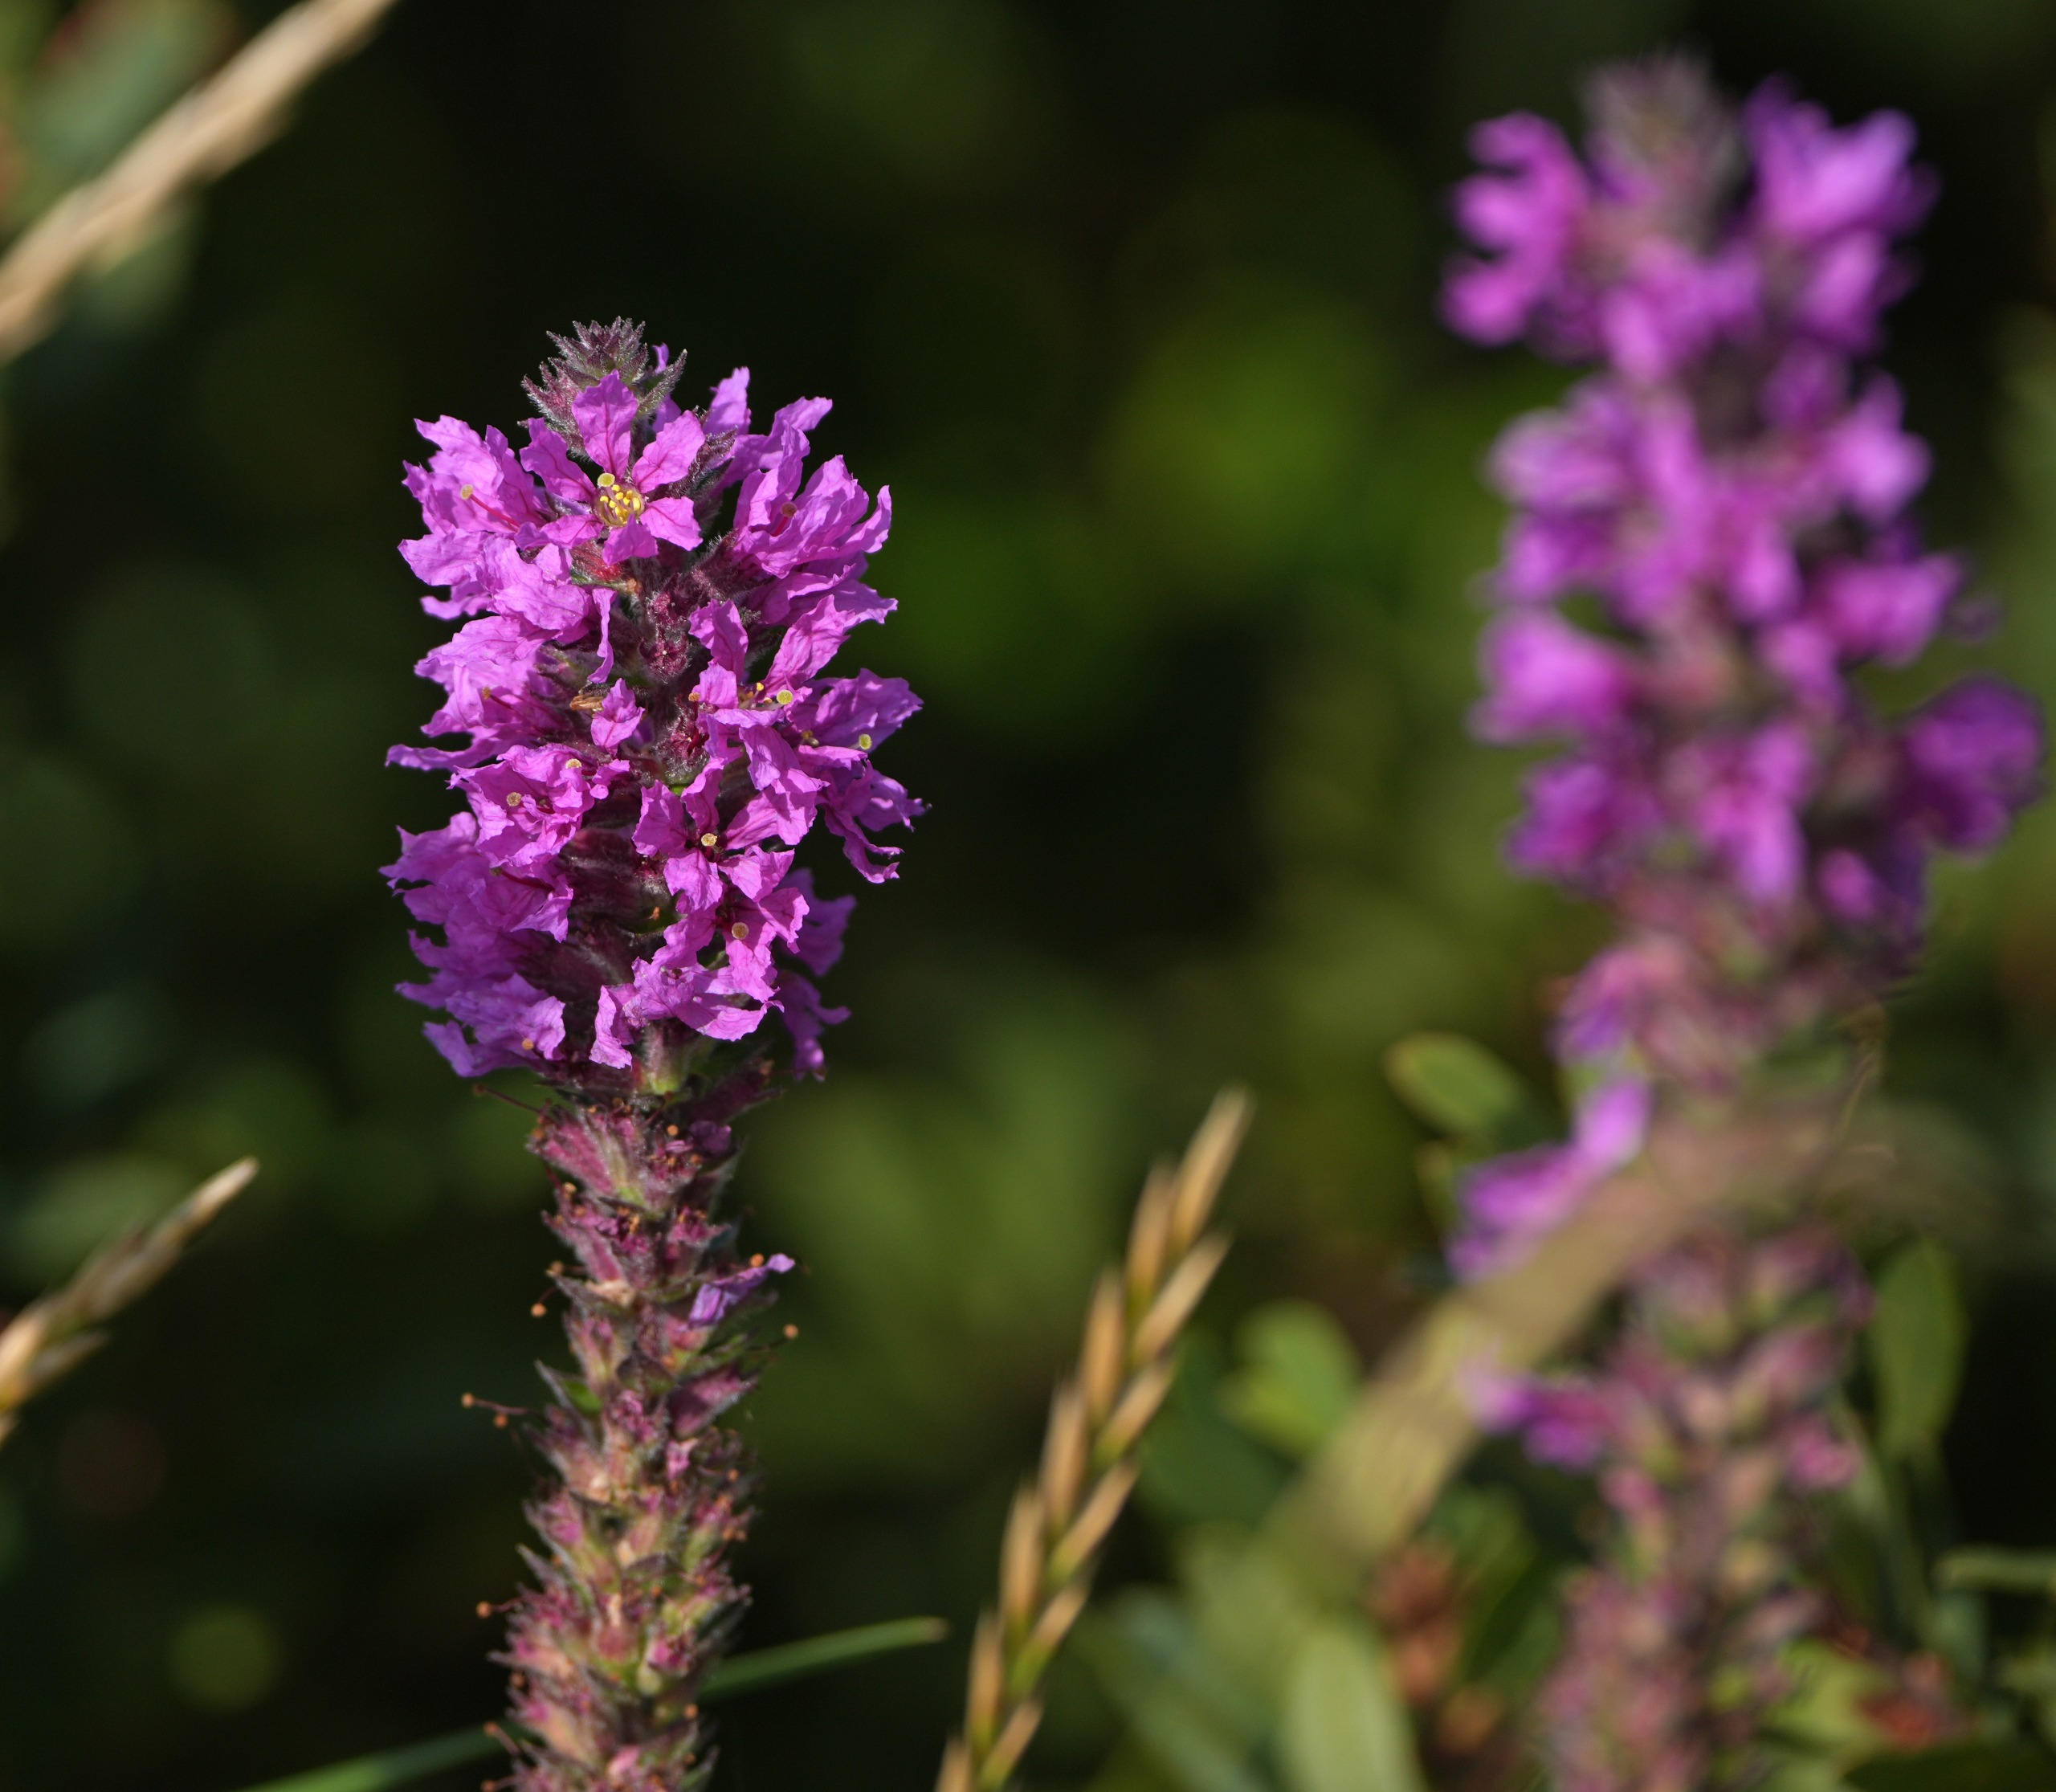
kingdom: Plantae
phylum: Tracheophyta
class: Magnoliopsida
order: Myrtales
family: Lythraceae
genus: Lythrum
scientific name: Lythrum salicaria
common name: Kattehale
